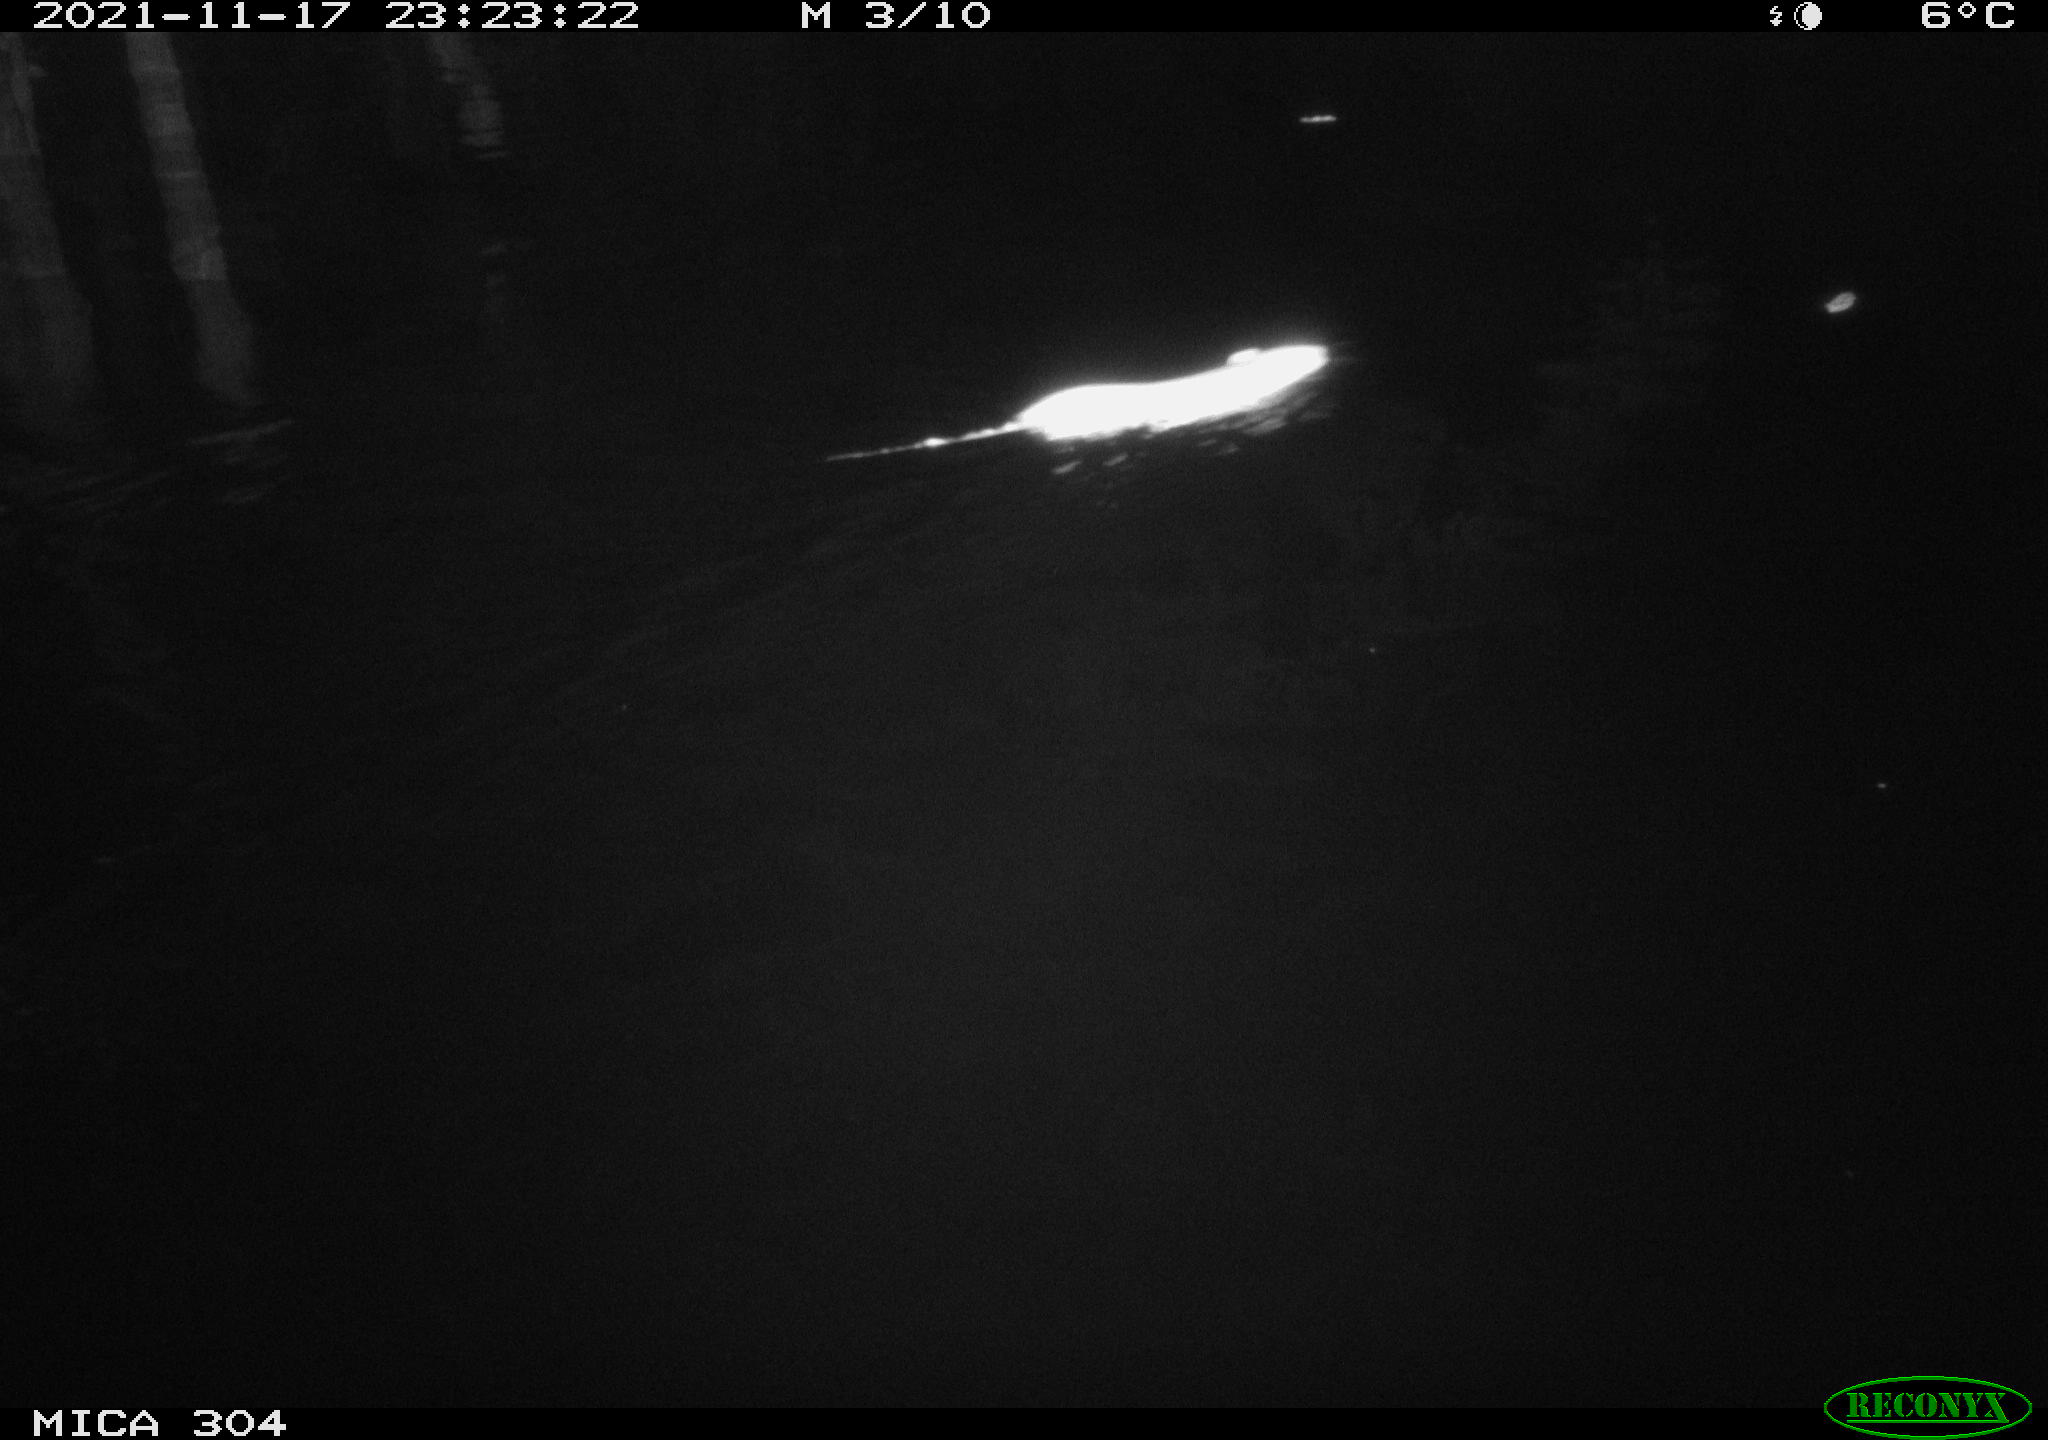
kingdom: Animalia
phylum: Chordata
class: Mammalia
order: Rodentia
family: Muridae
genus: Rattus
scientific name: Rattus norvegicus
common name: Brown rat
